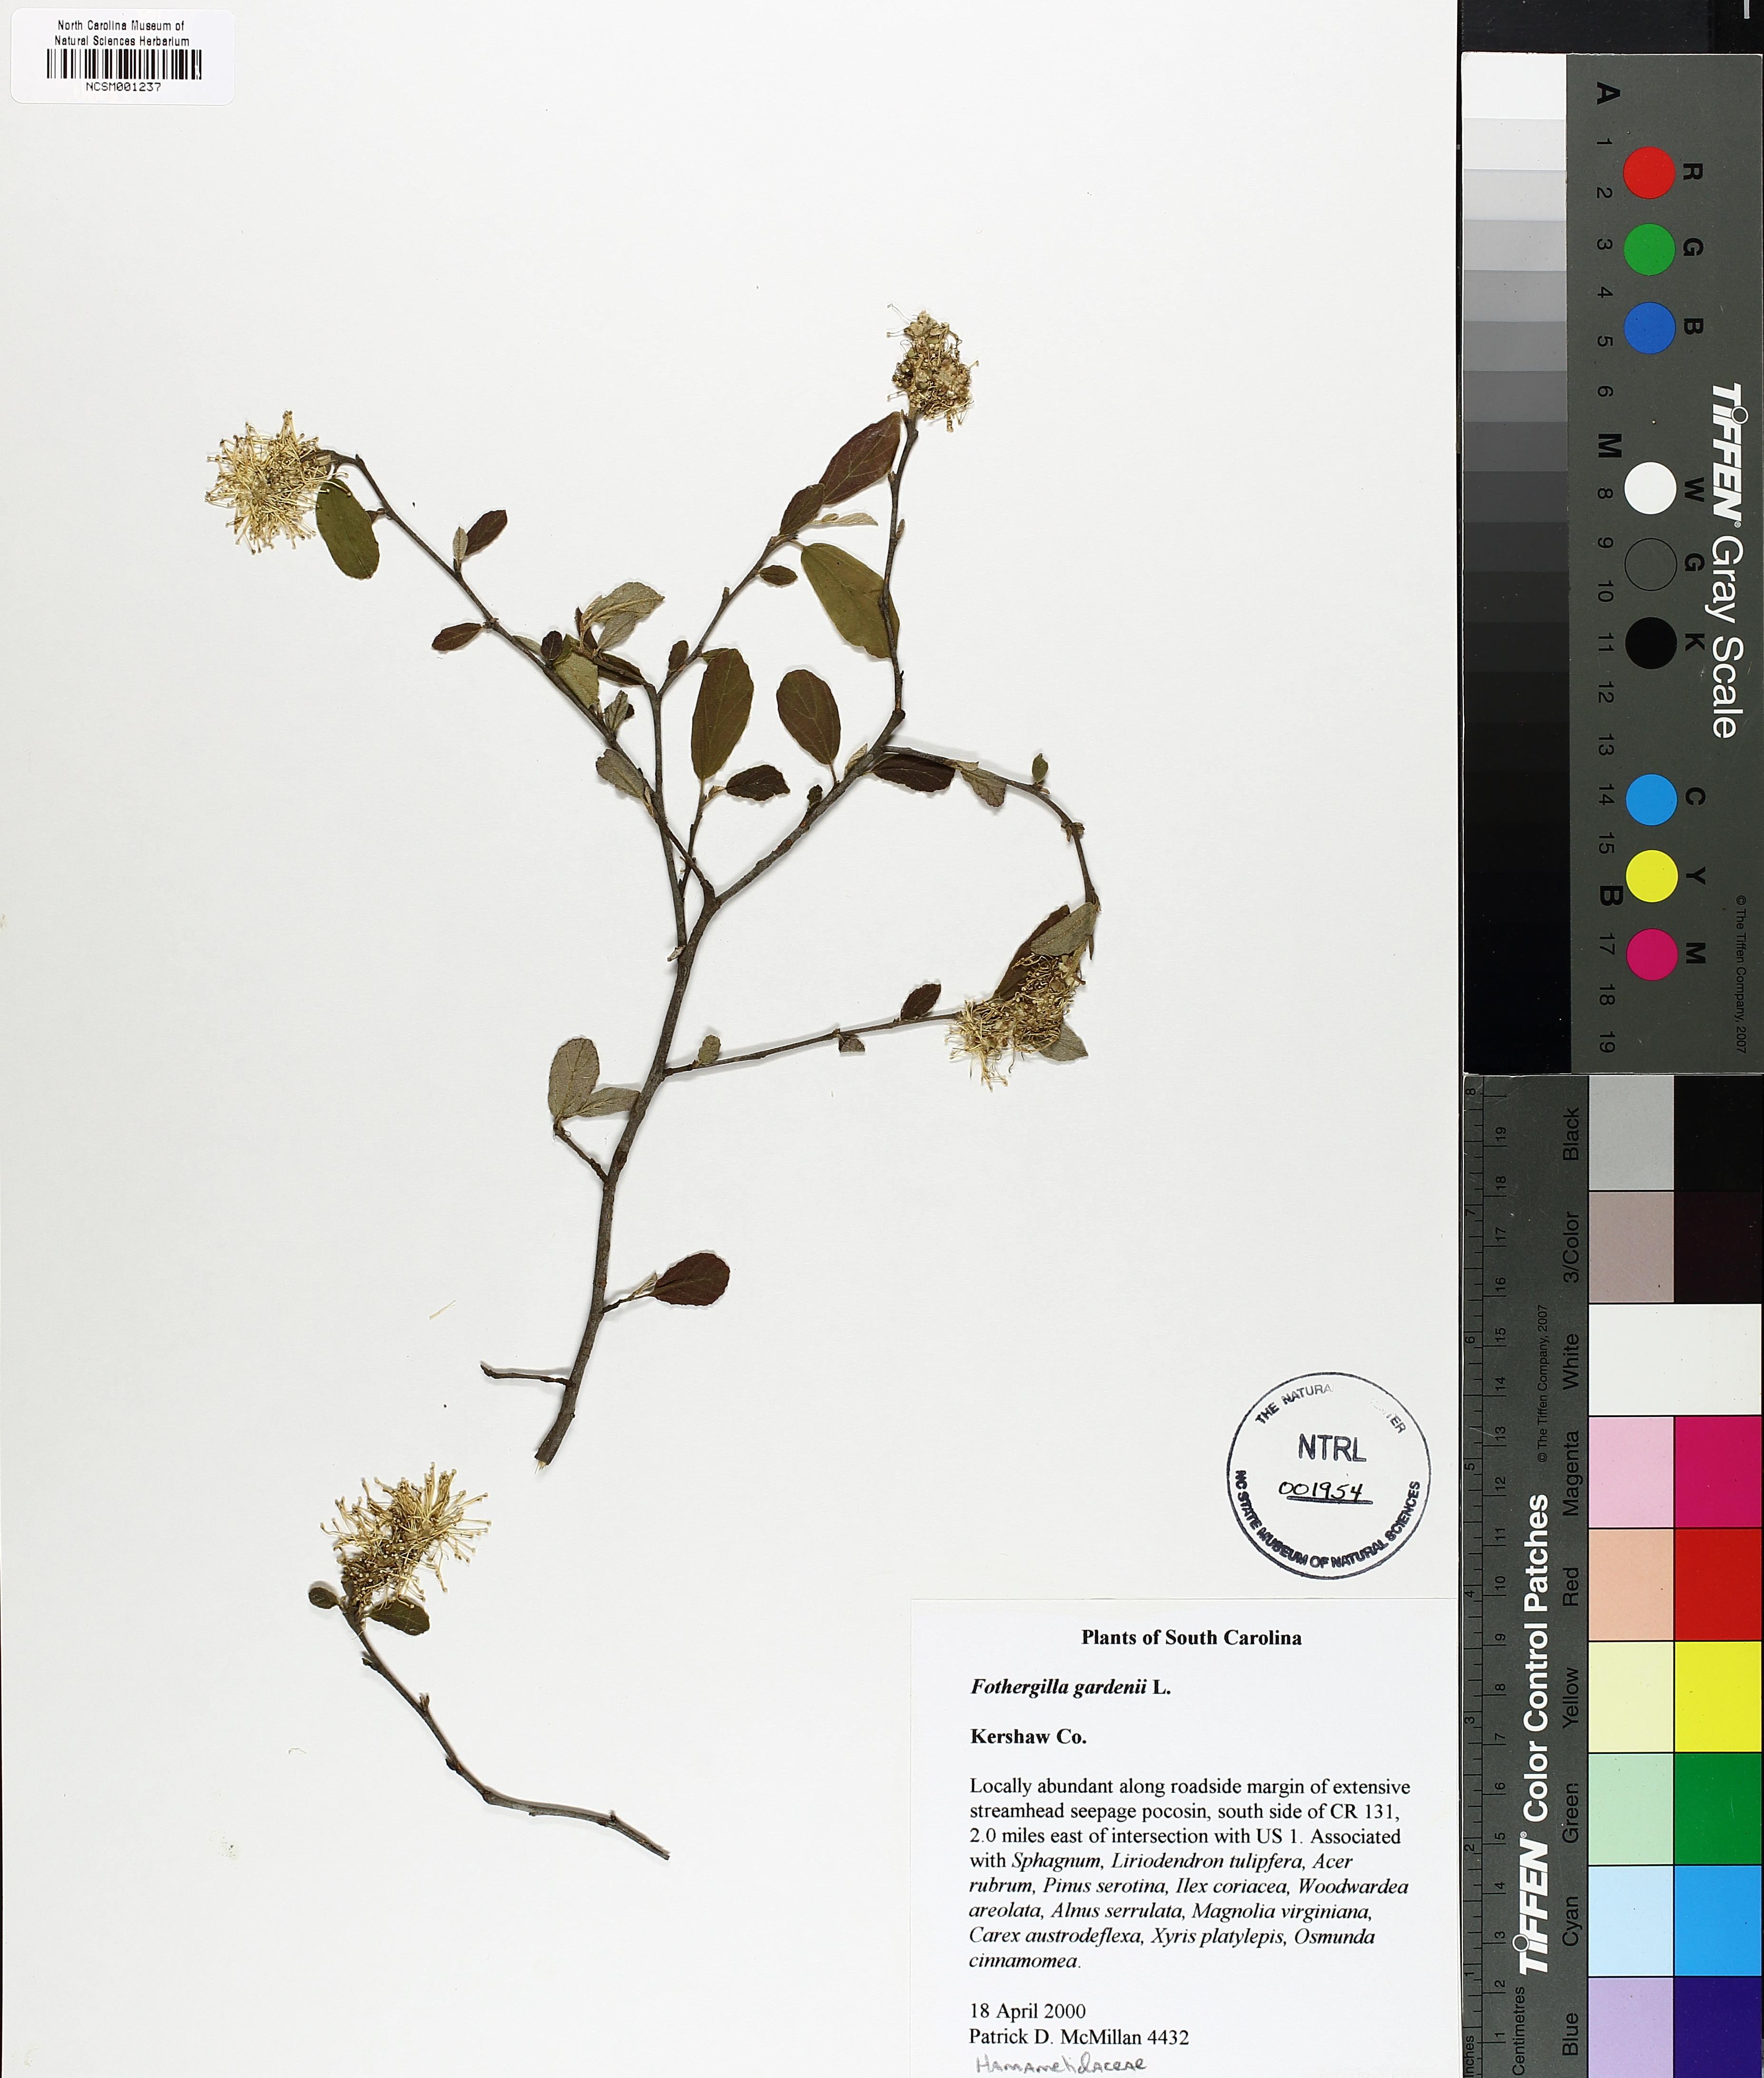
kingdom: Plantae
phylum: Tracheophyta
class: Magnoliopsida
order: Saxifragales
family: Hamamelidaceae
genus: Fothergilla
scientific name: Fothergilla gardenii
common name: Dwarf witch-alder
